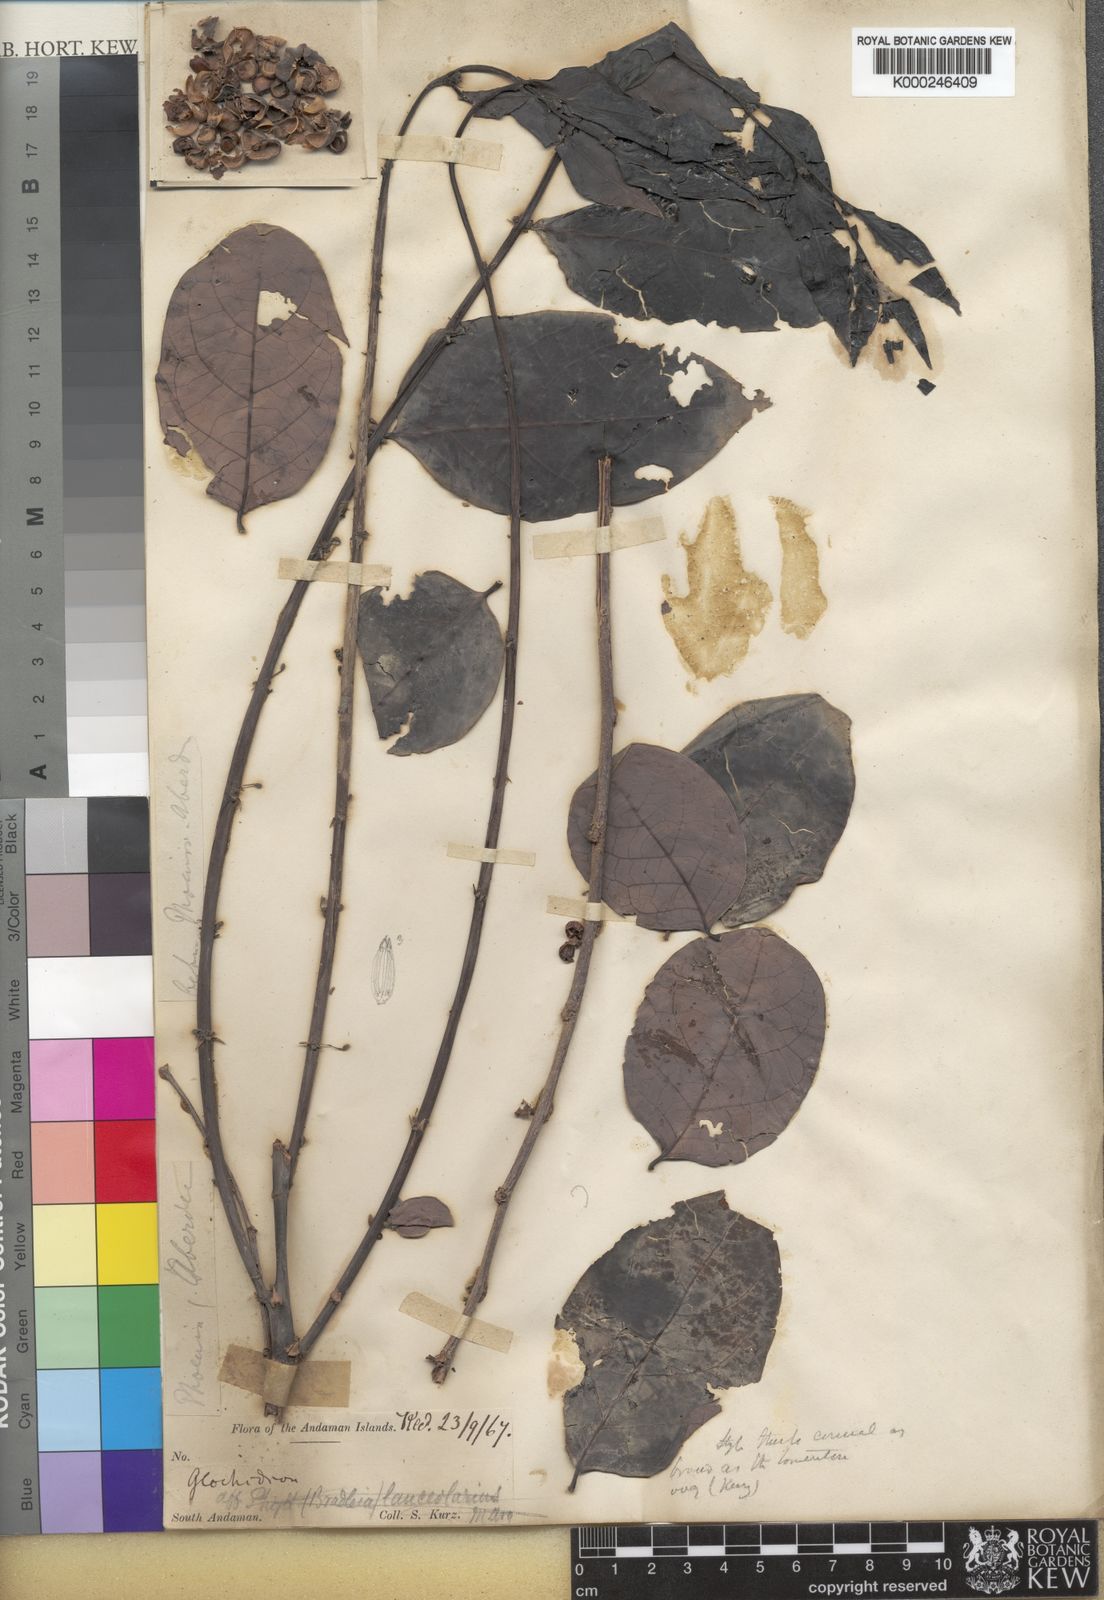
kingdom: Plantae
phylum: Tracheophyta
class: Magnoliopsida
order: Malpighiales
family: Phyllanthaceae
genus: Glochidion
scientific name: Glochidion andamanicum
